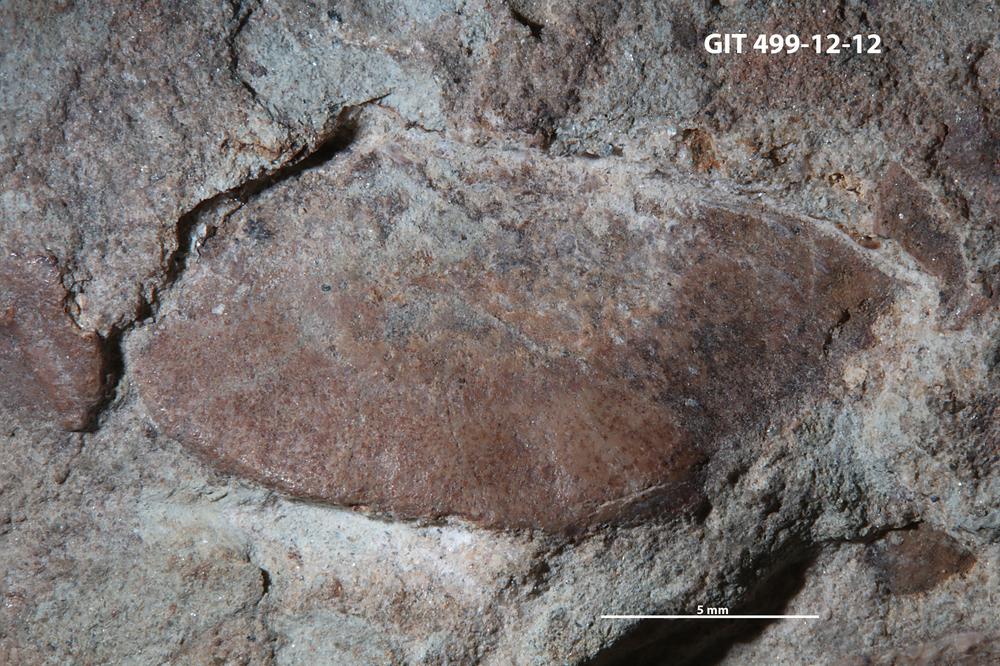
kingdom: Animalia
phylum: Chordata
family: Holoptychiidae
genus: Glyptolepis
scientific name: Glyptolepis
